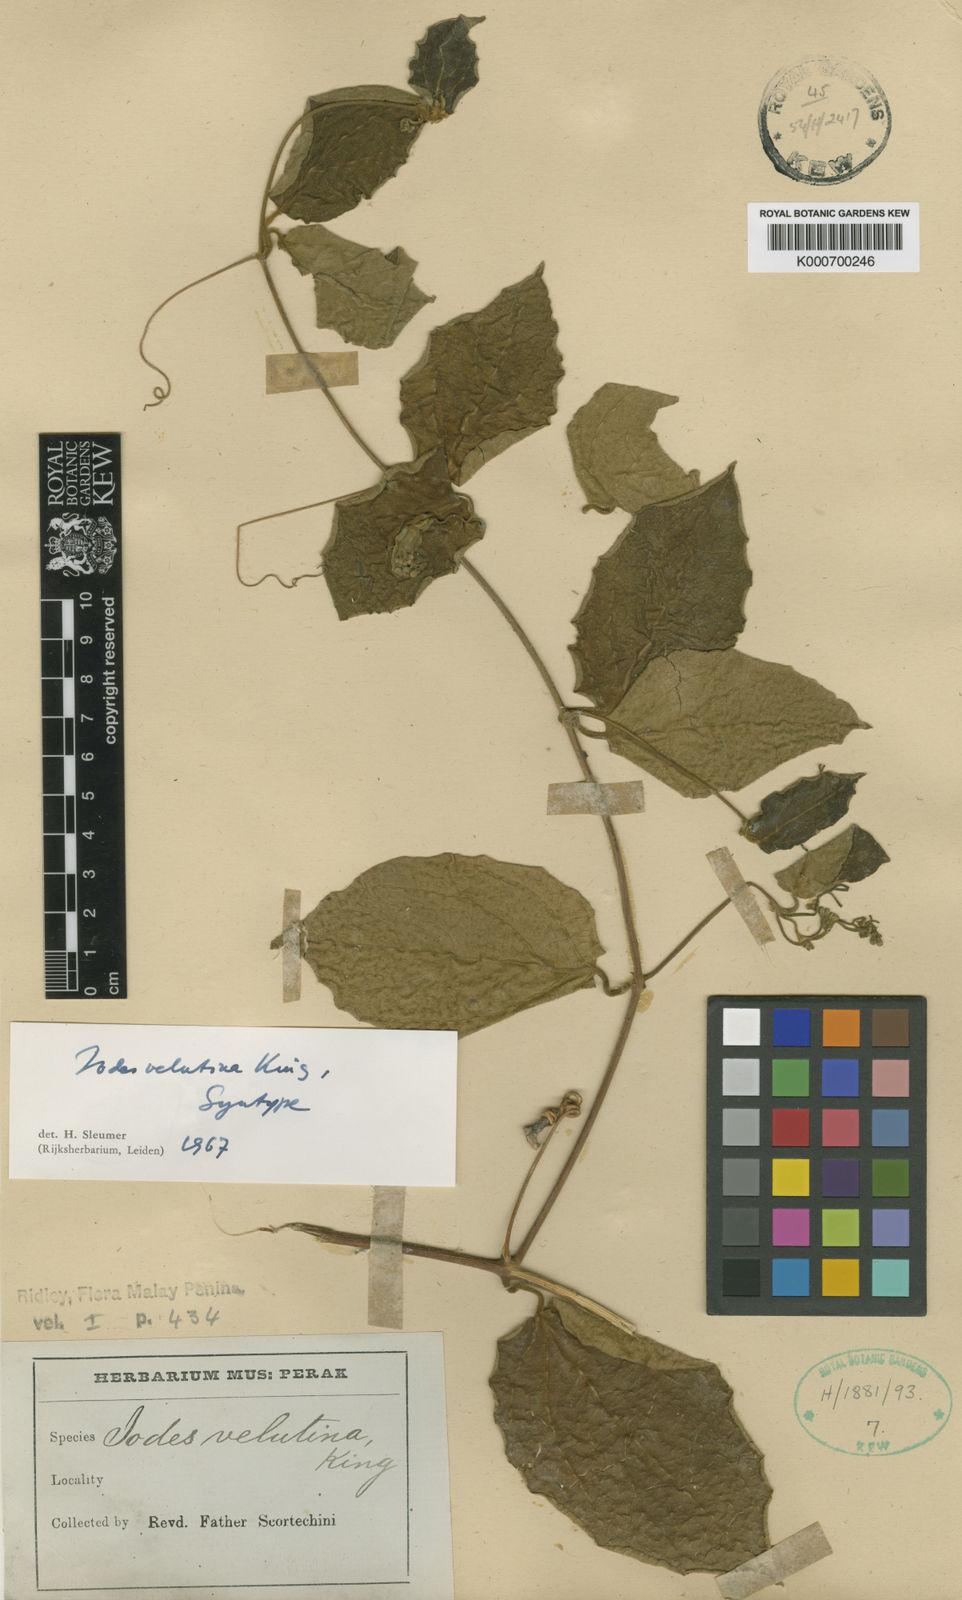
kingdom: Plantae
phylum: Tracheophyta
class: Magnoliopsida
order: Icacinales
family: Icacinaceae
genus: Iodes
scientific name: Iodes velutina
